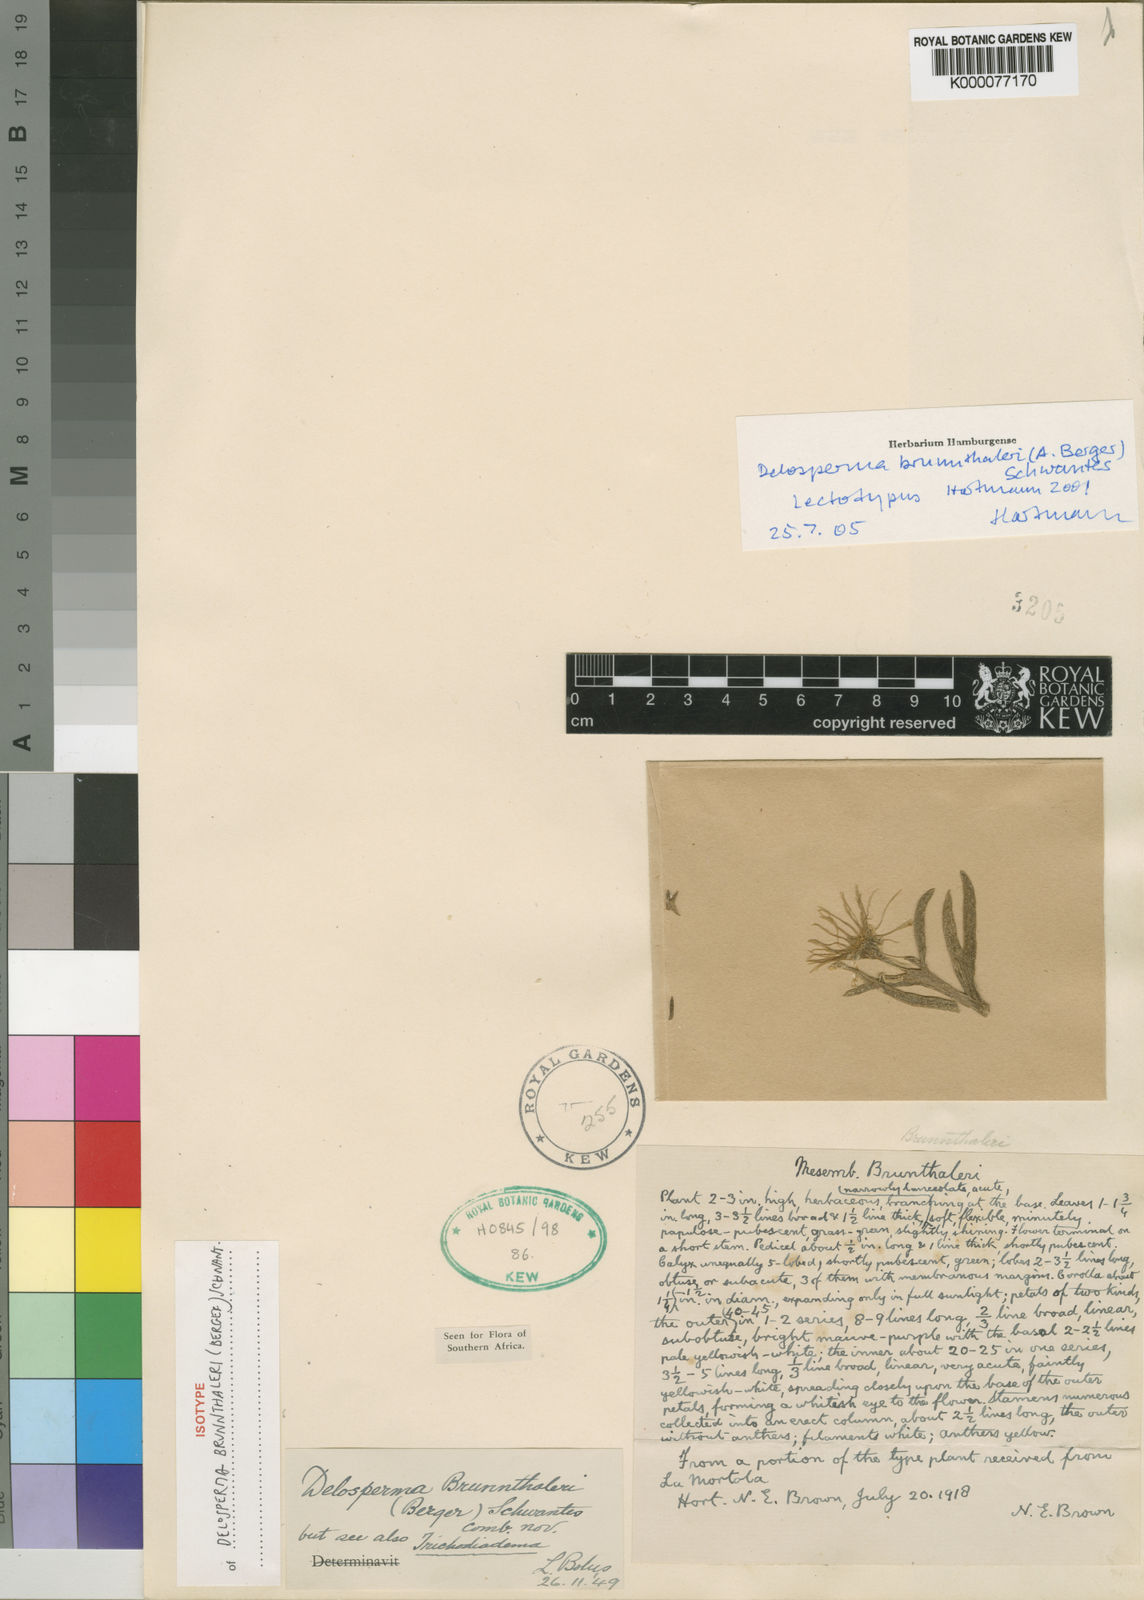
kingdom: Plantae
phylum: Tracheophyta
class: Magnoliopsida
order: Caryophyllales
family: Aizoaceae
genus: Delosperma
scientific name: Delosperma brunnthaleri
